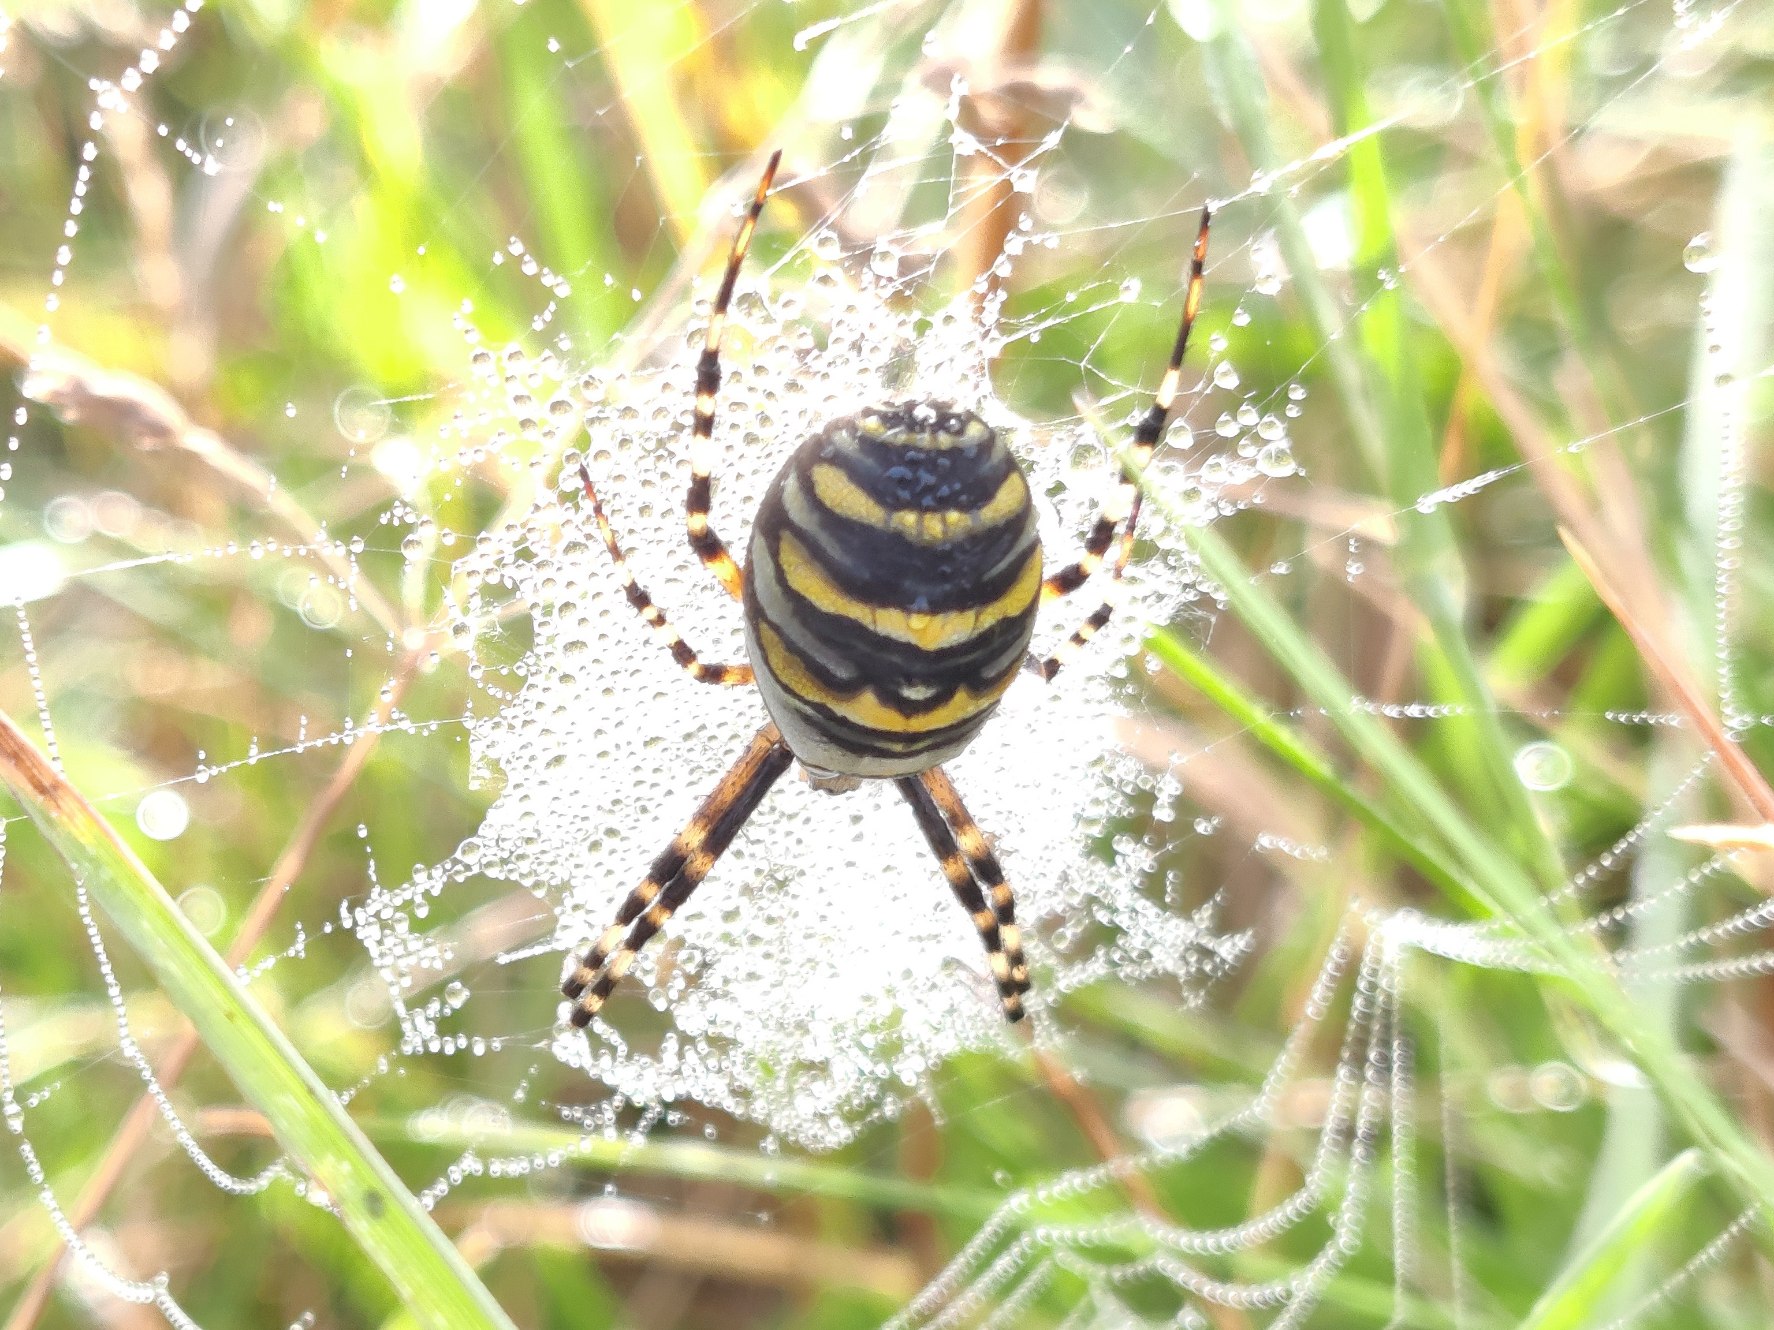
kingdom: Animalia
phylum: Arthropoda
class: Arachnida
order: Araneae
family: Araneidae
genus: Argiope
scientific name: Argiope bruennichi
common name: Hvepseedderkop
